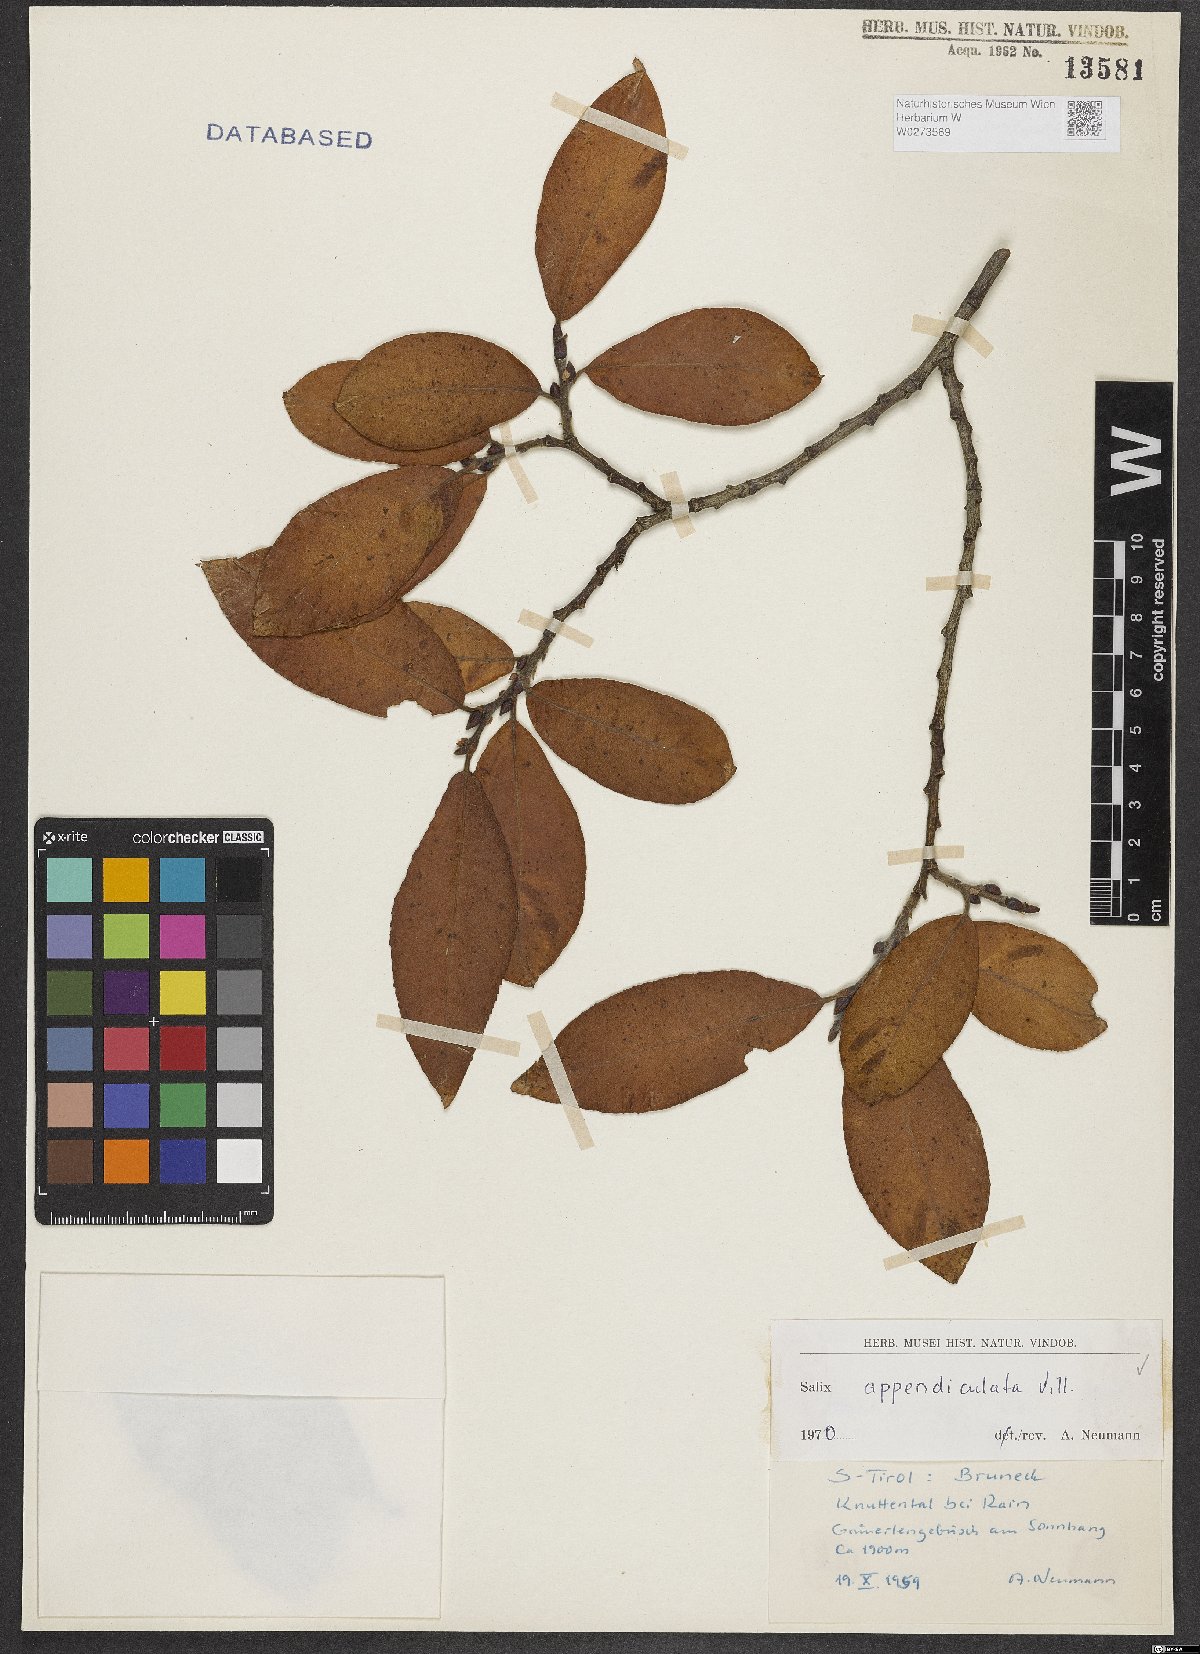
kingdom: Plantae
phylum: Tracheophyta
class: Magnoliopsida
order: Malpighiales
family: Salicaceae
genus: Salix
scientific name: Salix appendiculata
